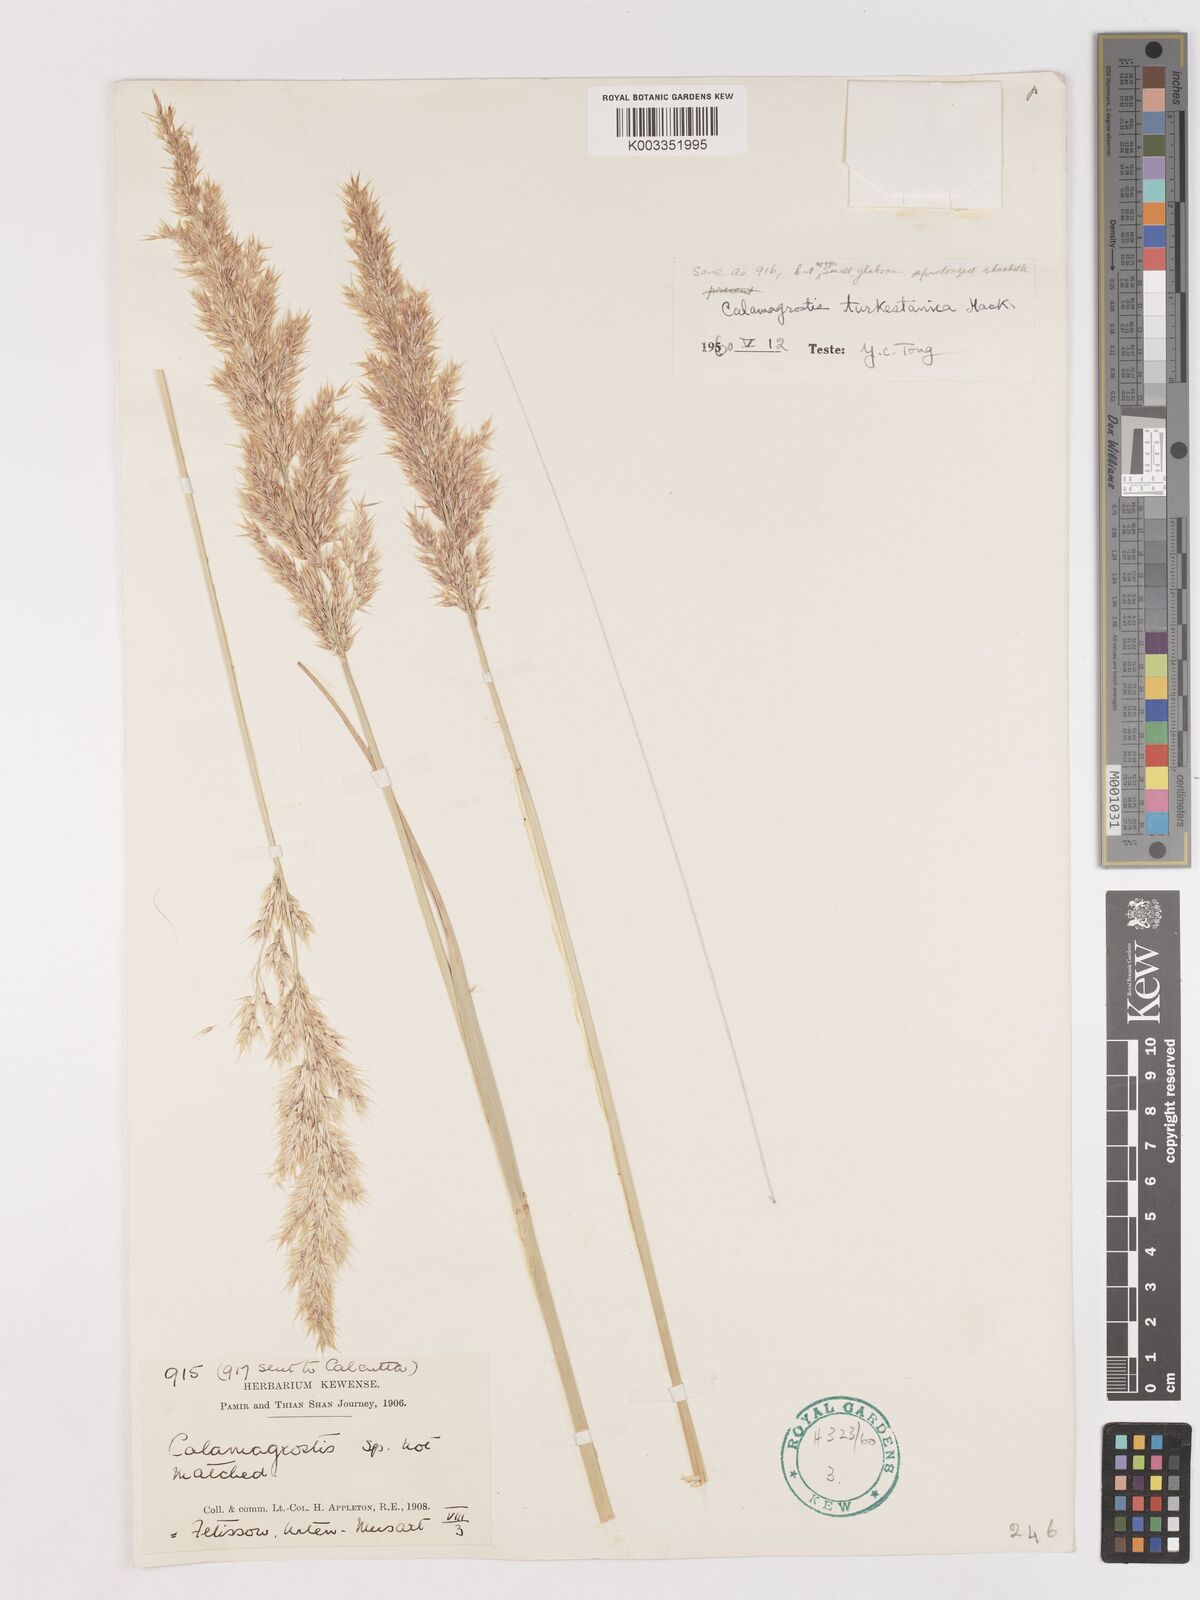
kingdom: Plantae
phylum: Tracheophyta
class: Liliopsida
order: Poales
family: Poaceae
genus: Calamagrostis
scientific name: Calamagrostis turkestanica
